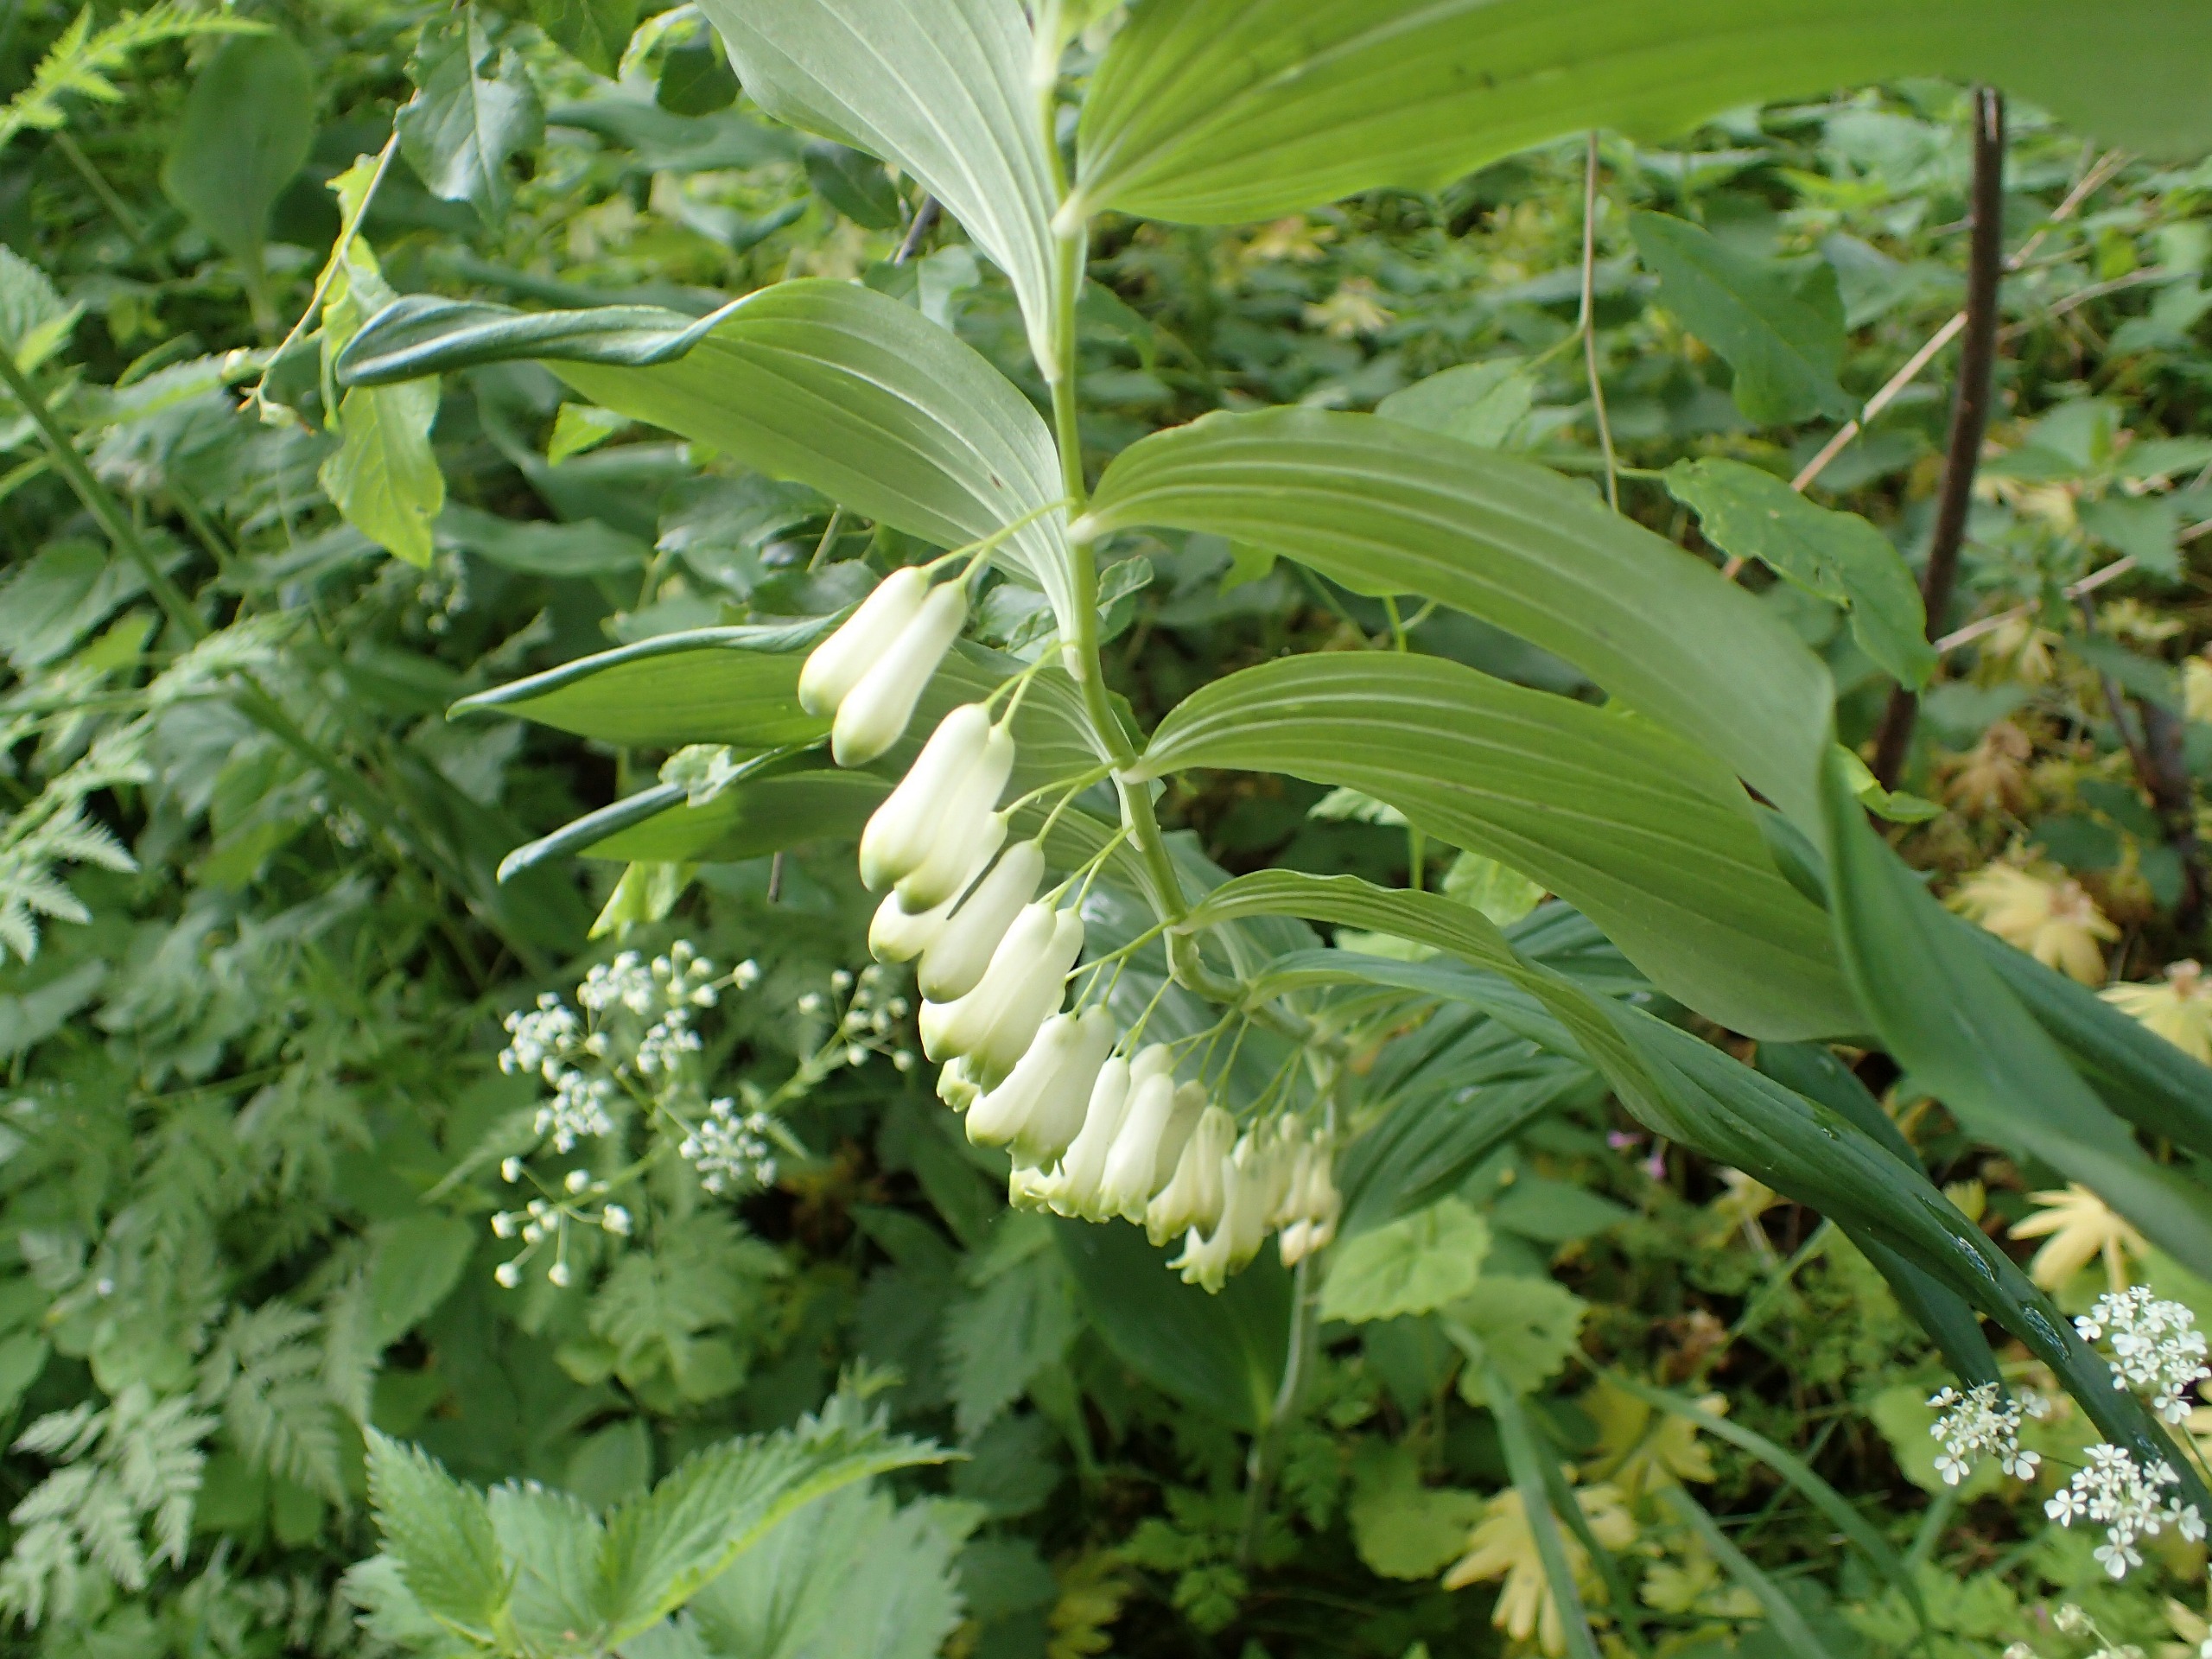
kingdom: Plantae
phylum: Tracheophyta
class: Liliopsida
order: Asparagales
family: Asparagaceae
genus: Polygonatum
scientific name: Polygonatum multiflorum
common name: Stor konval
